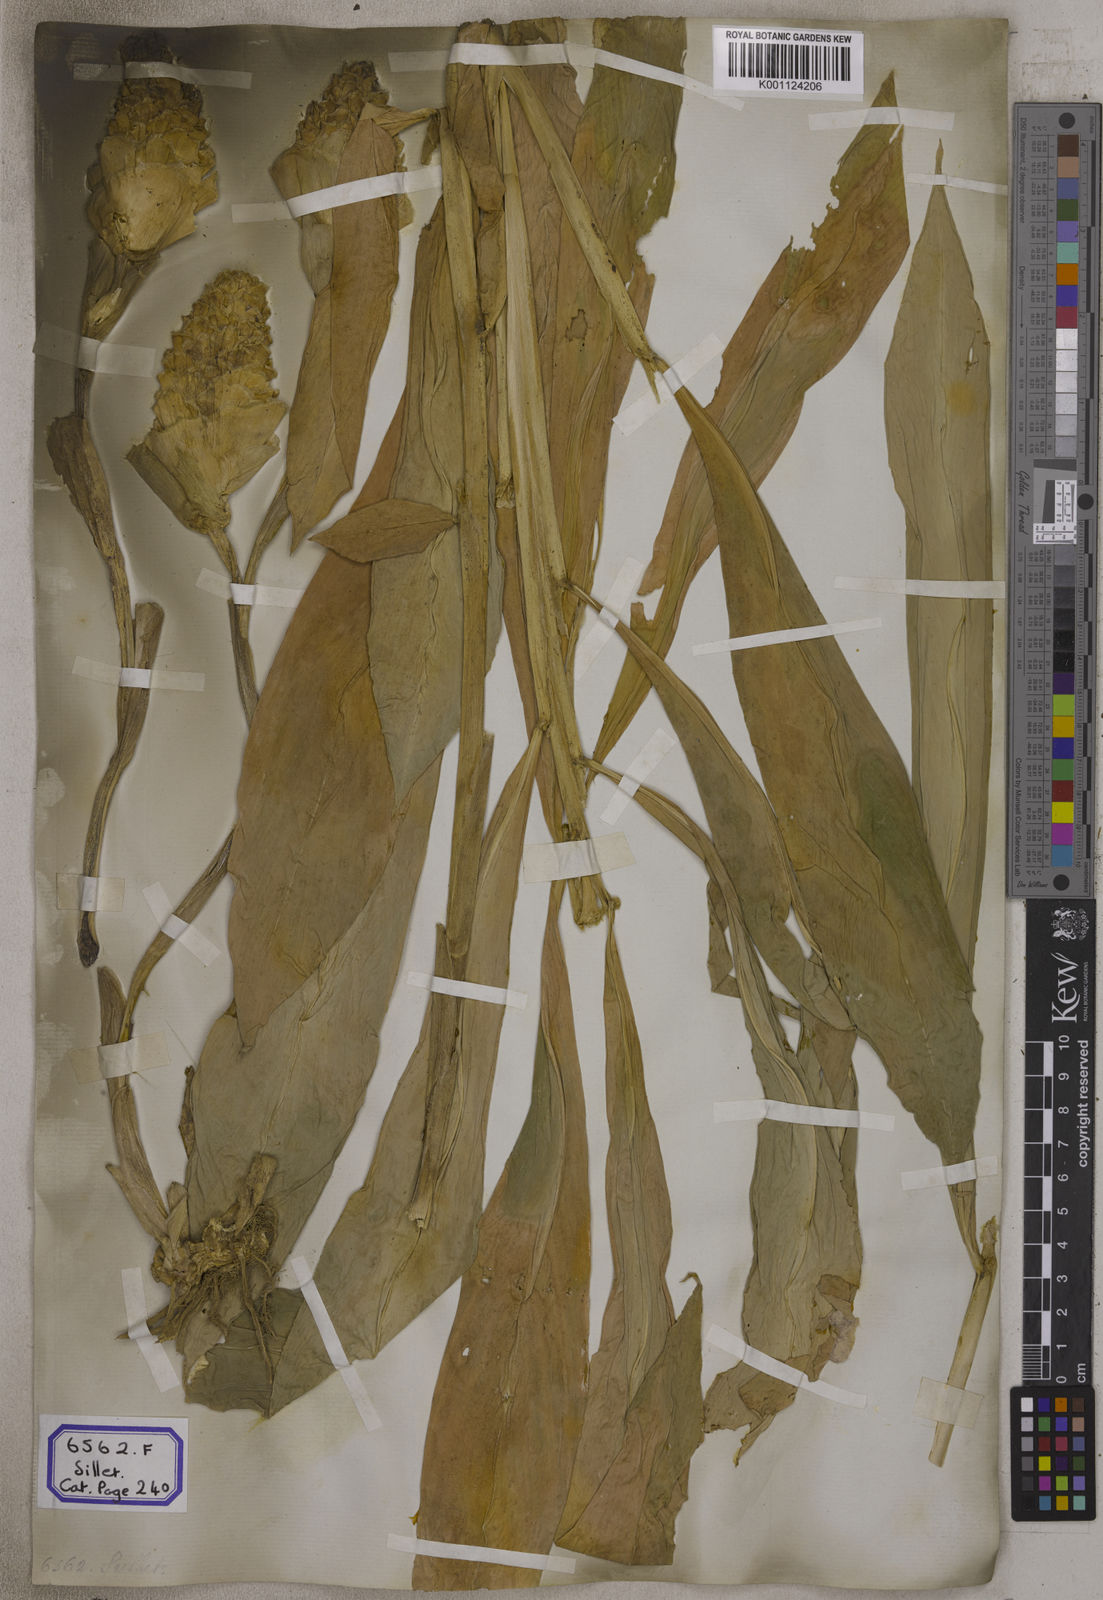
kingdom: Plantae
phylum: Tracheophyta
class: Liliopsida
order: Zingiberales
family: Zingiberaceae
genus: Zingiber
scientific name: Zingiber zerumbet
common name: Bitter ginger
